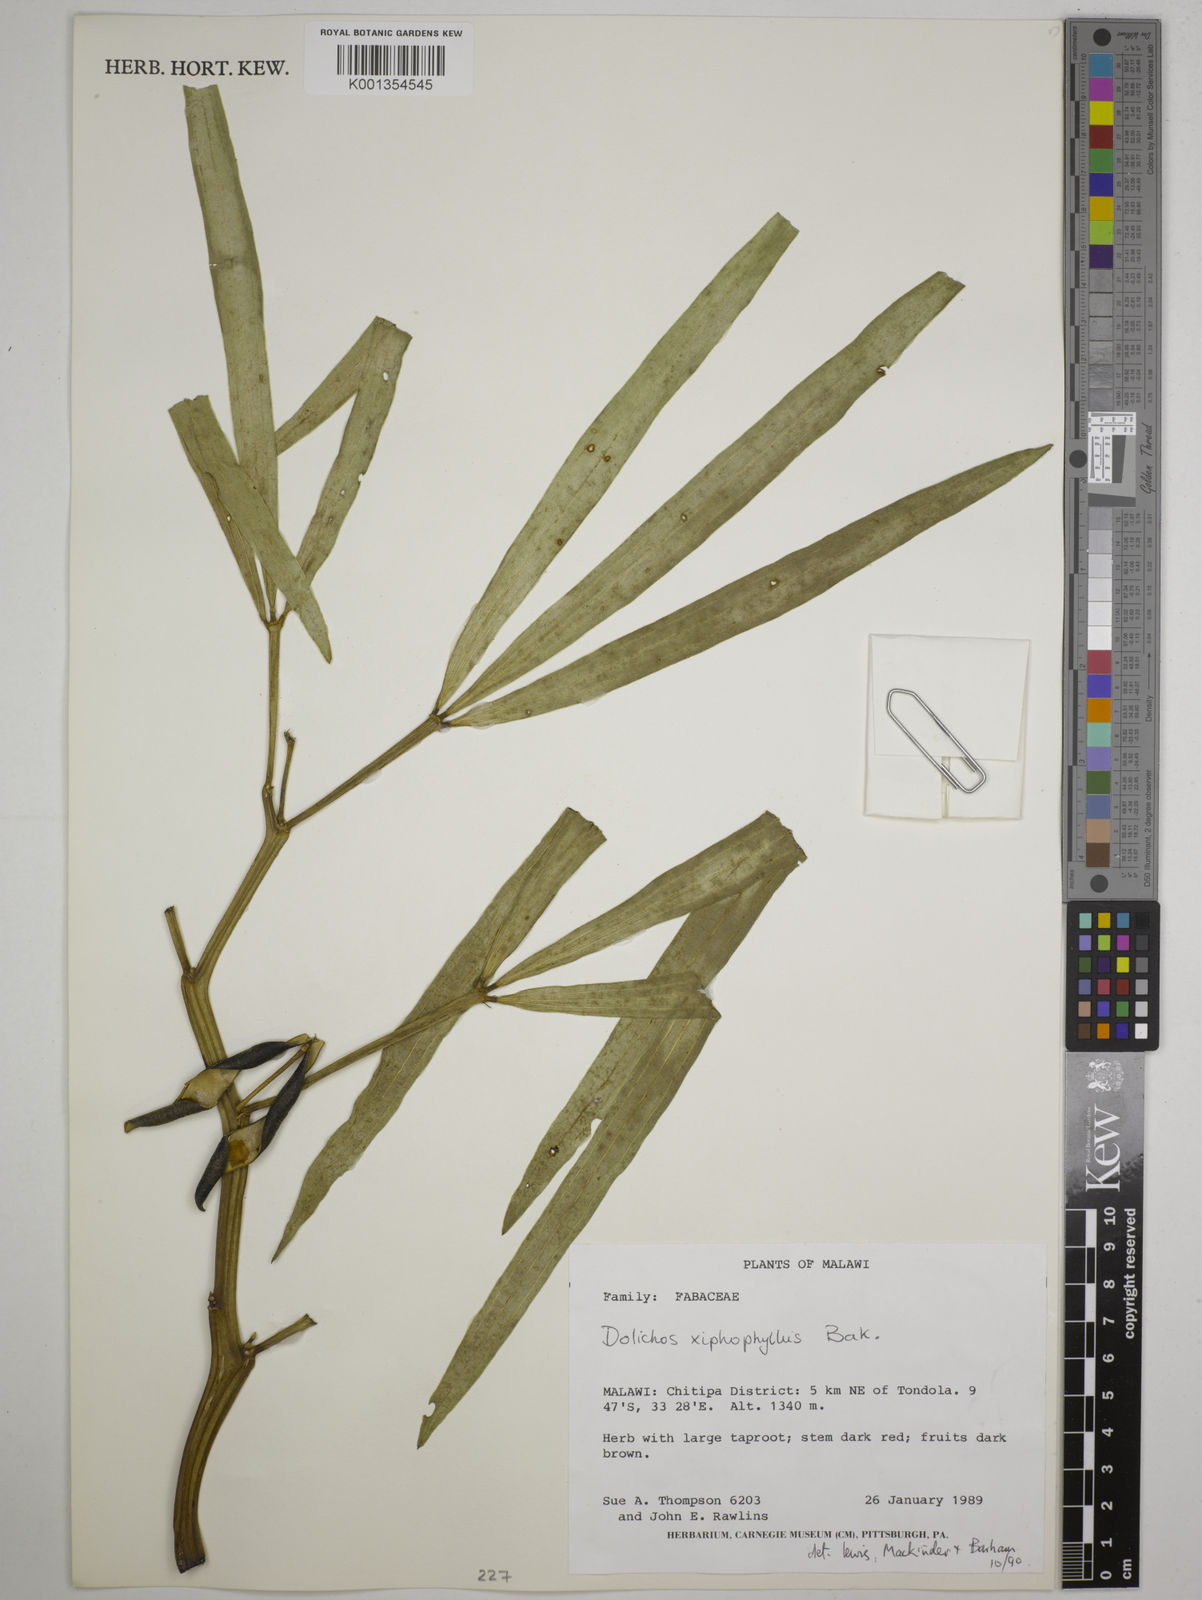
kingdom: Plantae
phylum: Tracheophyta
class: Magnoliopsida
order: Fabales
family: Fabaceae
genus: Dolichos
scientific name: Dolichos xiphophyllus
